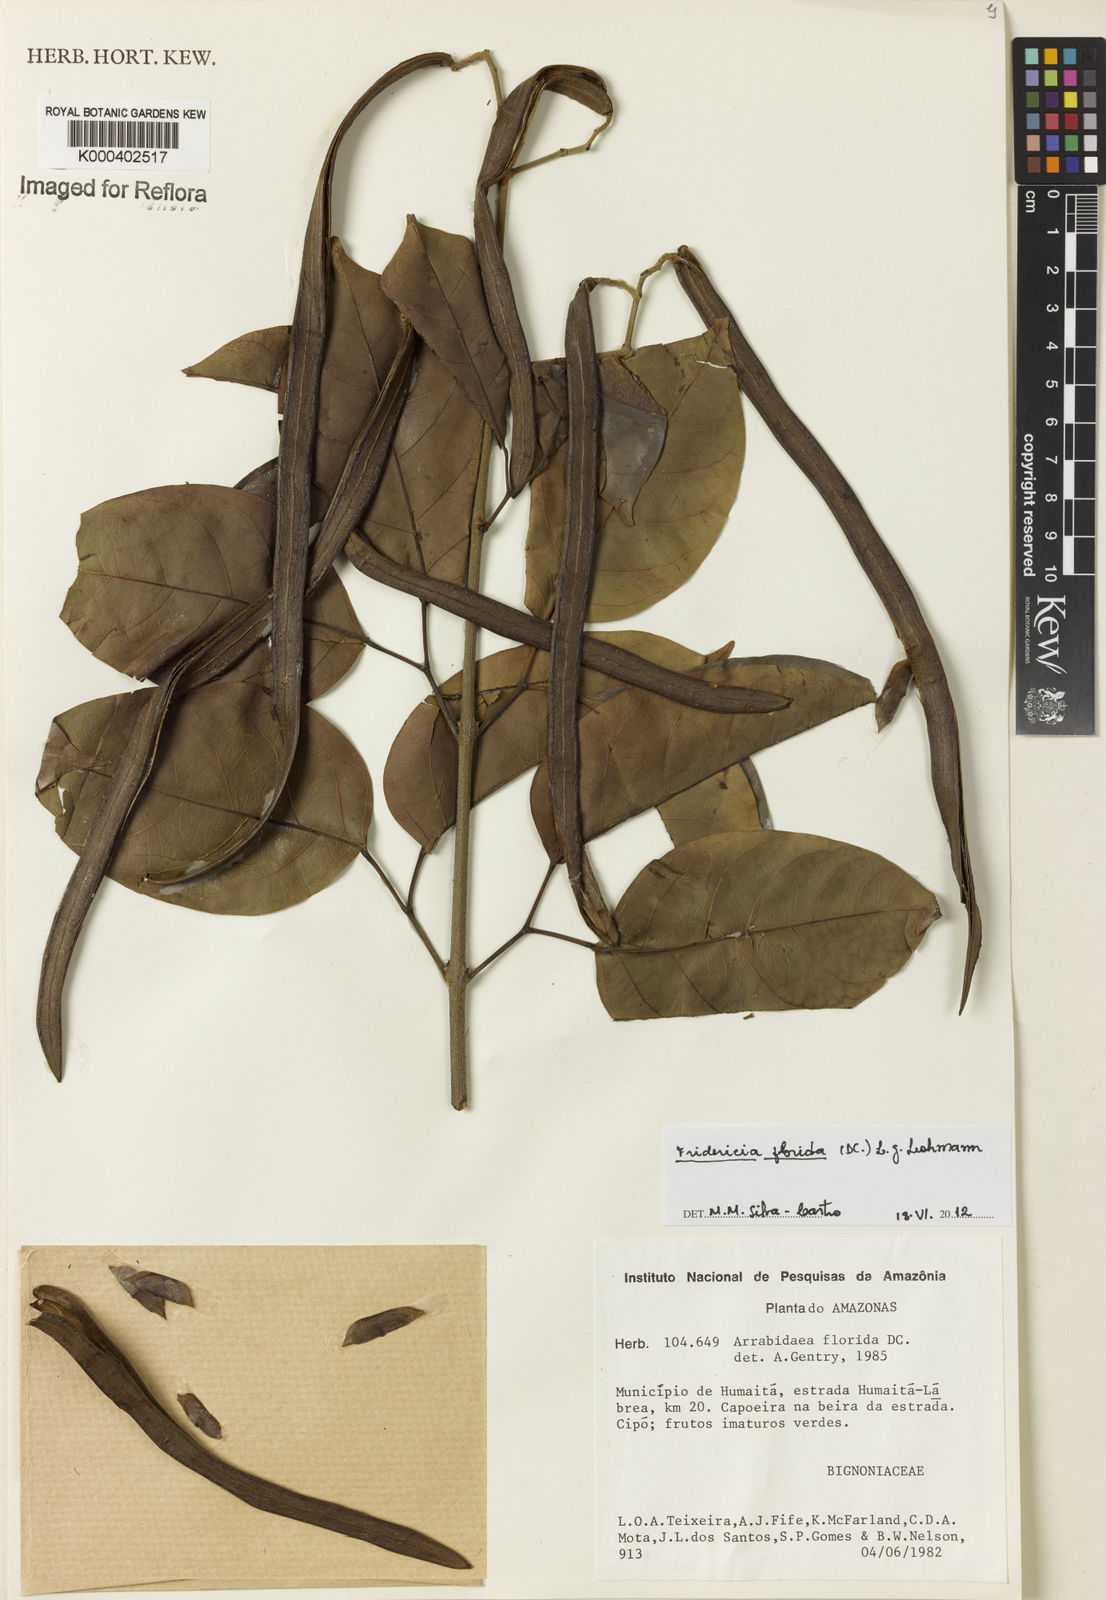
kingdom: Plantae
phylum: Tracheophyta
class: Magnoliopsida
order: Lamiales
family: Bignoniaceae
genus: Fridericia
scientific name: Fridericia florida
